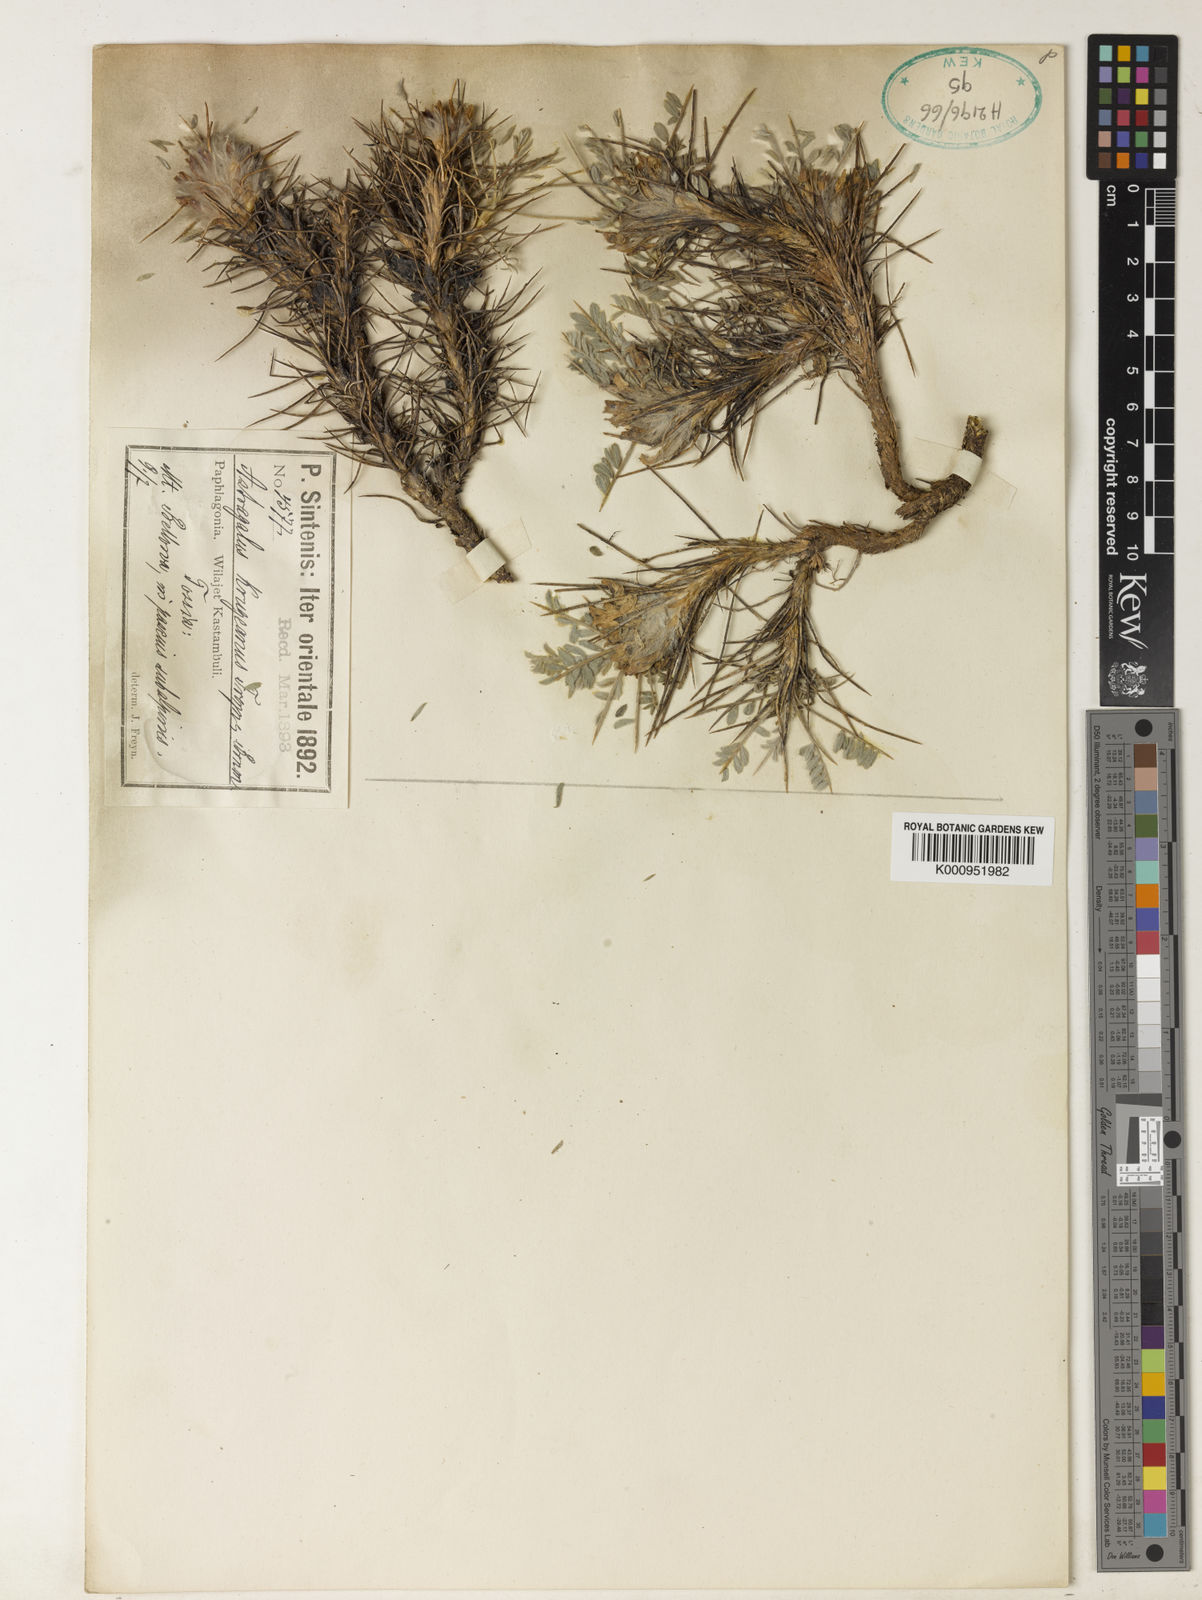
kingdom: Plantae
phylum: Tracheophyta
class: Magnoliopsida
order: Fabales
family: Fabaceae
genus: Astragalus
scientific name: Astragalus plumosus
